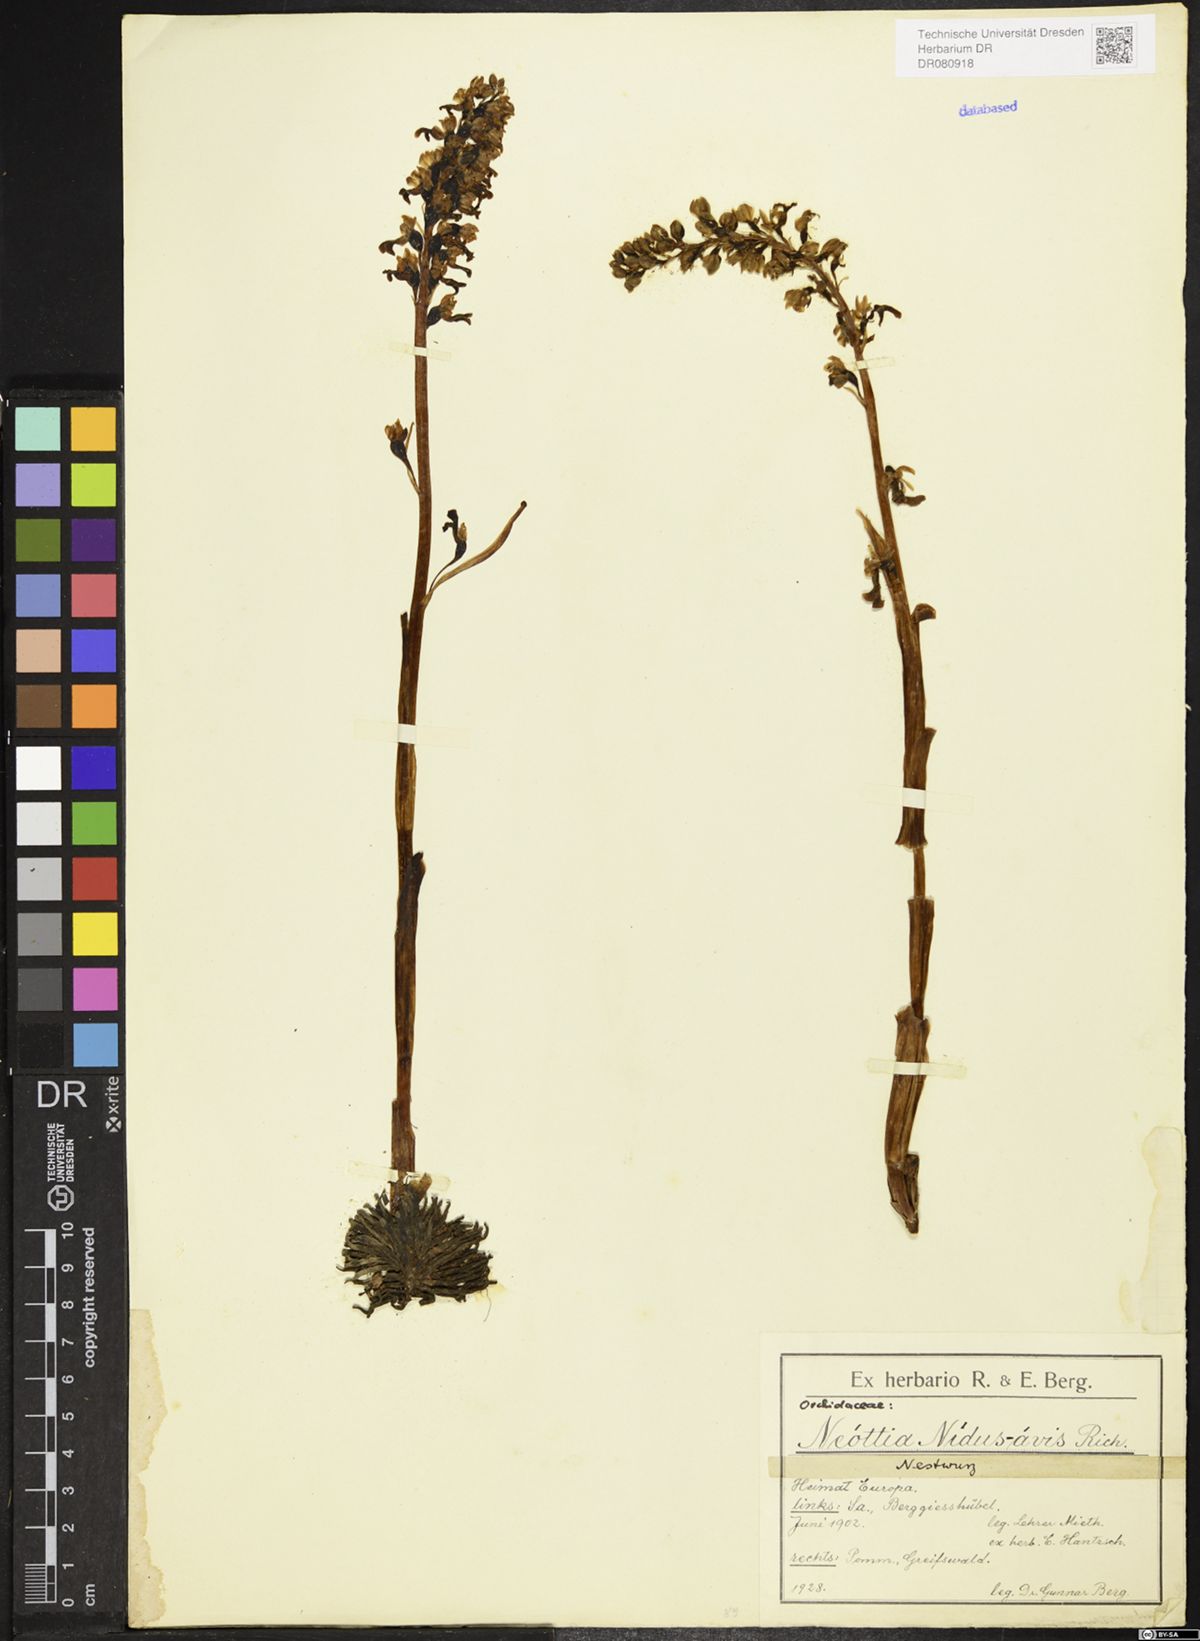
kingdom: Plantae
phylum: Tracheophyta
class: Liliopsida
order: Asparagales
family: Orchidaceae
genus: Neottia
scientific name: Neottia nidus-avis
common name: Bird's-nest orchid
